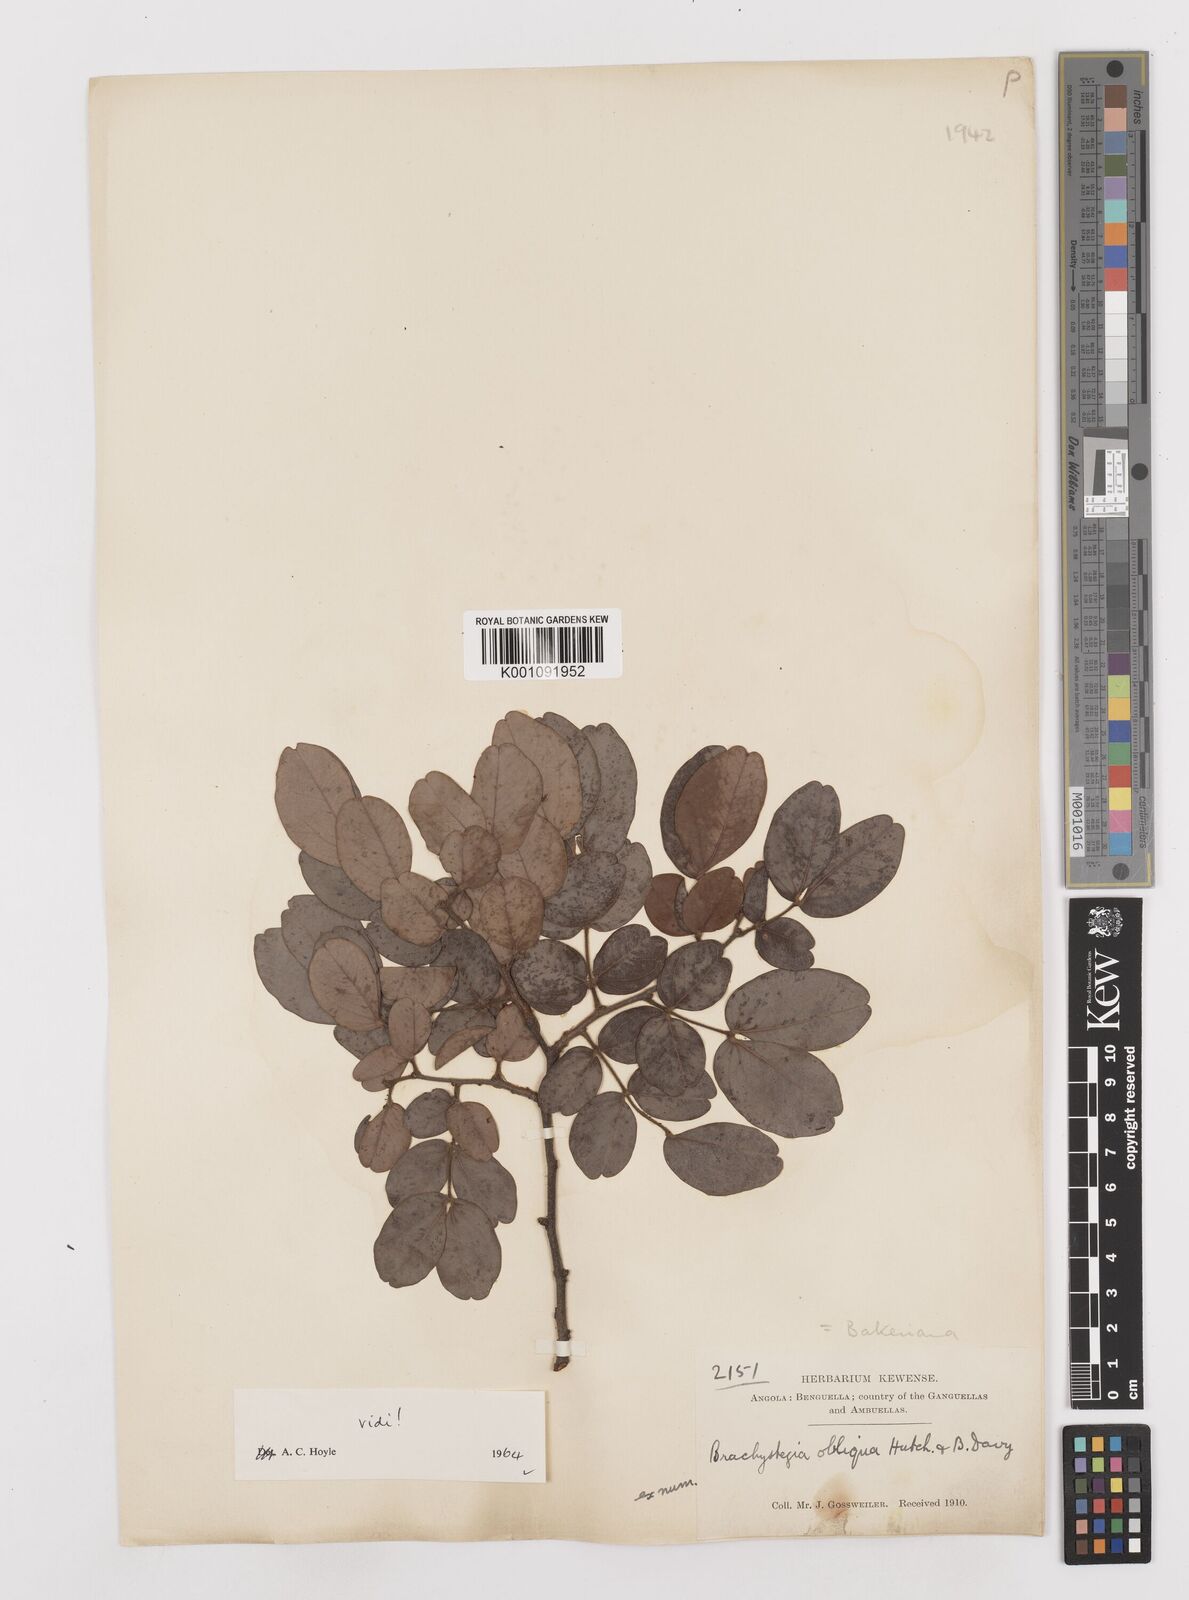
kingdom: Plantae
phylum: Tracheophyta
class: Magnoliopsida
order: Fabales
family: Fabaceae
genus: Brachystegia
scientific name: Brachystegia bakeriana
